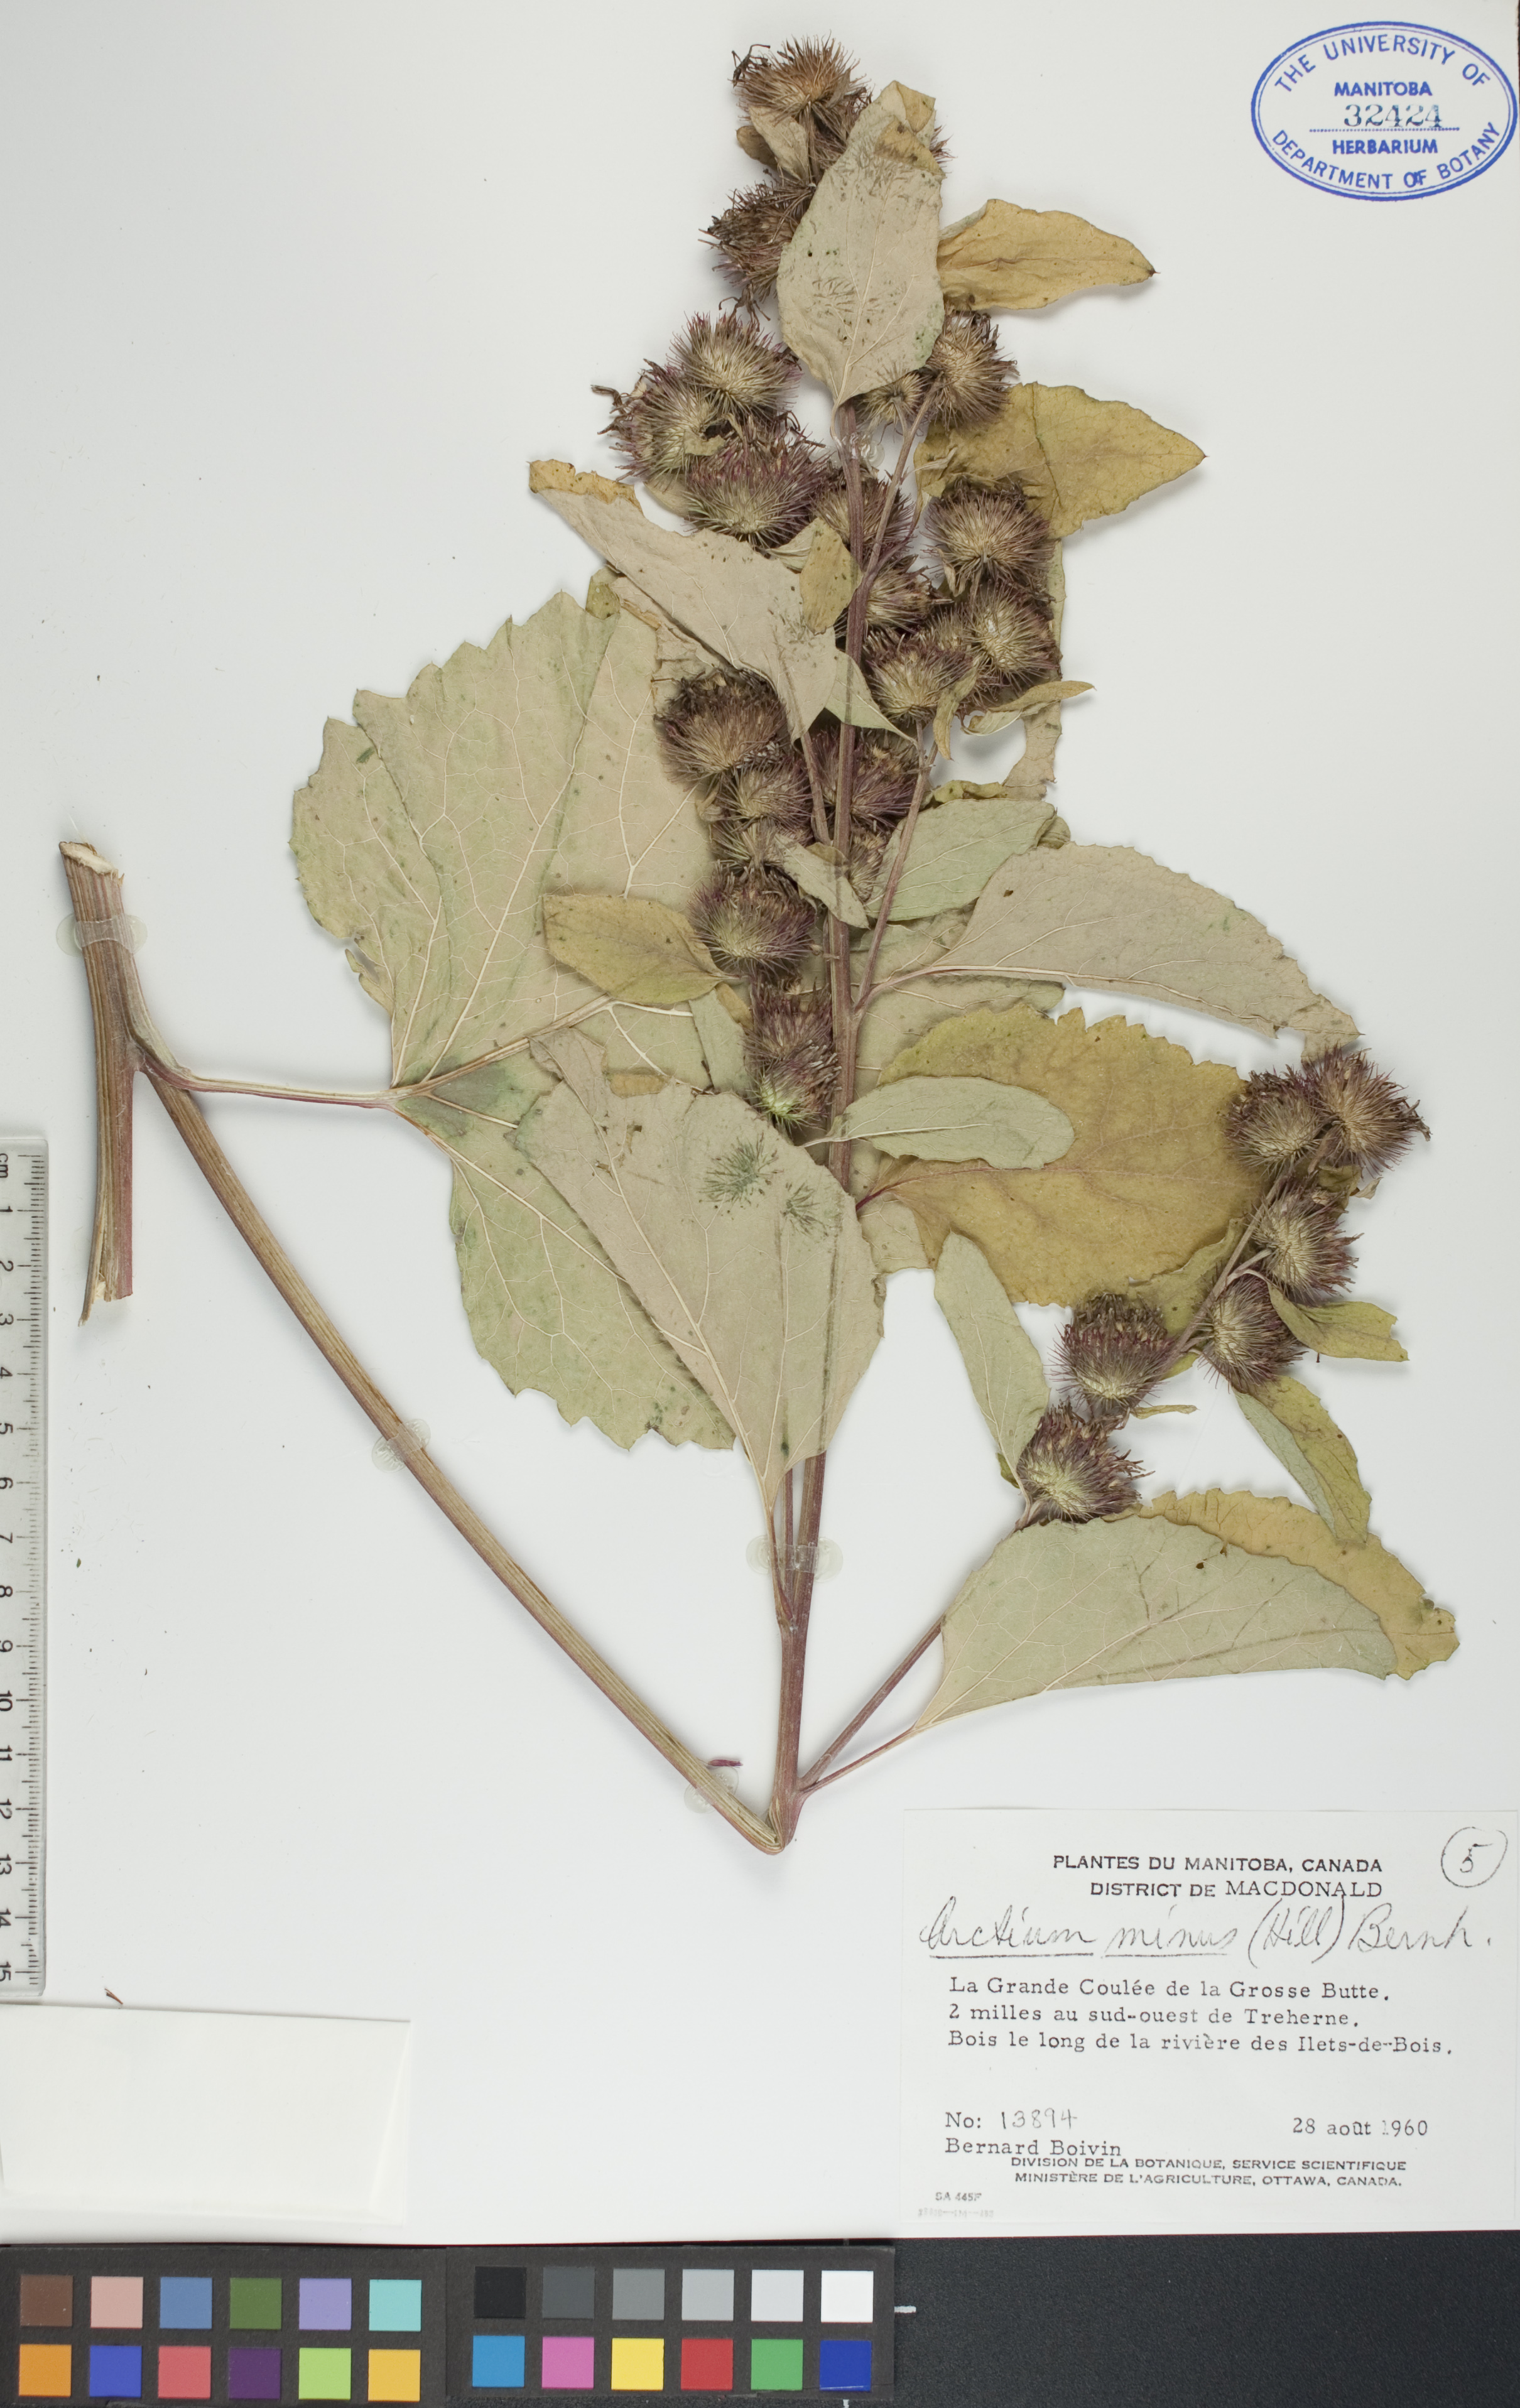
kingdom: Plantae
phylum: Tracheophyta
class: Magnoliopsida
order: Asterales
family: Asteraceae
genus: Arctium
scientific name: Arctium minus
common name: Lesser burdock
